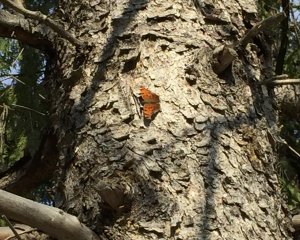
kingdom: Animalia
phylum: Arthropoda
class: Insecta
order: Lepidoptera
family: Nymphalidae
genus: Polygonia
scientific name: Polygonia comma
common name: Eastern Comma
